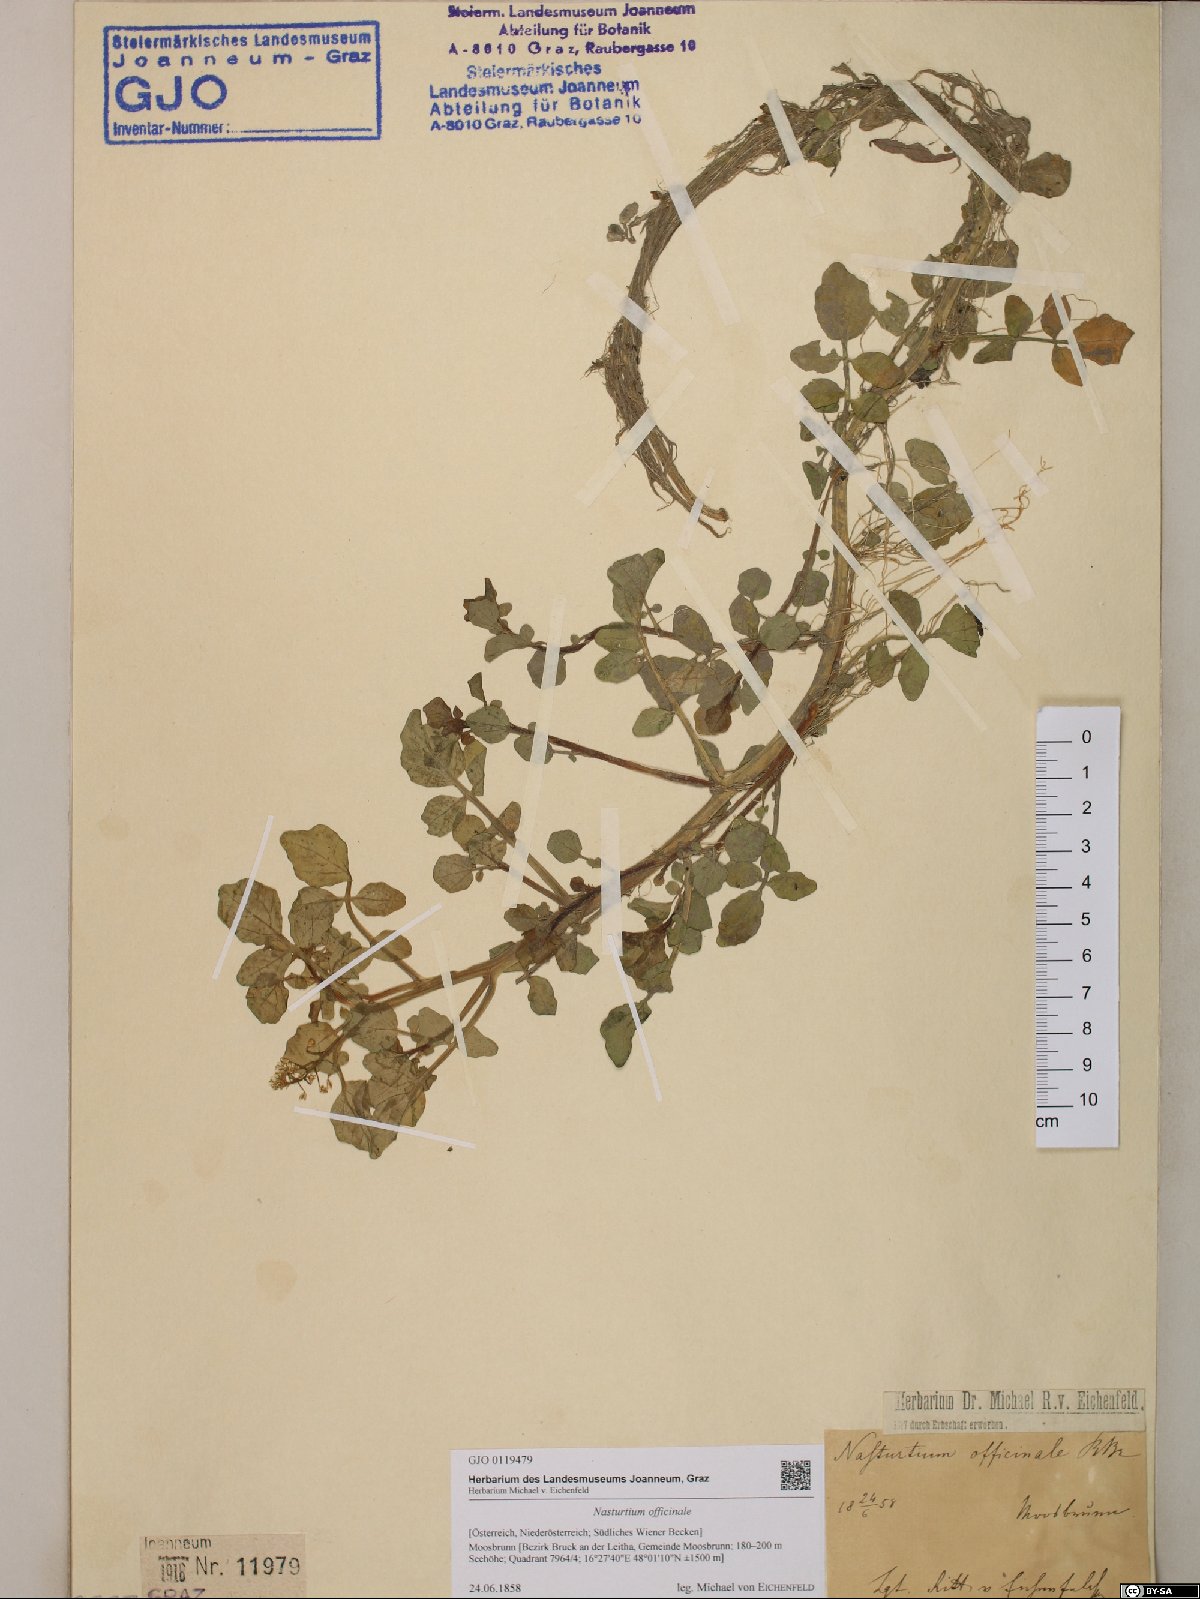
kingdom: Plantae
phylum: Tracheophyta
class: Magnoliopsida
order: Brassicales
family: Brassicaceae
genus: Nasturtium
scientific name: Nasturtium officinale
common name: Watercress
